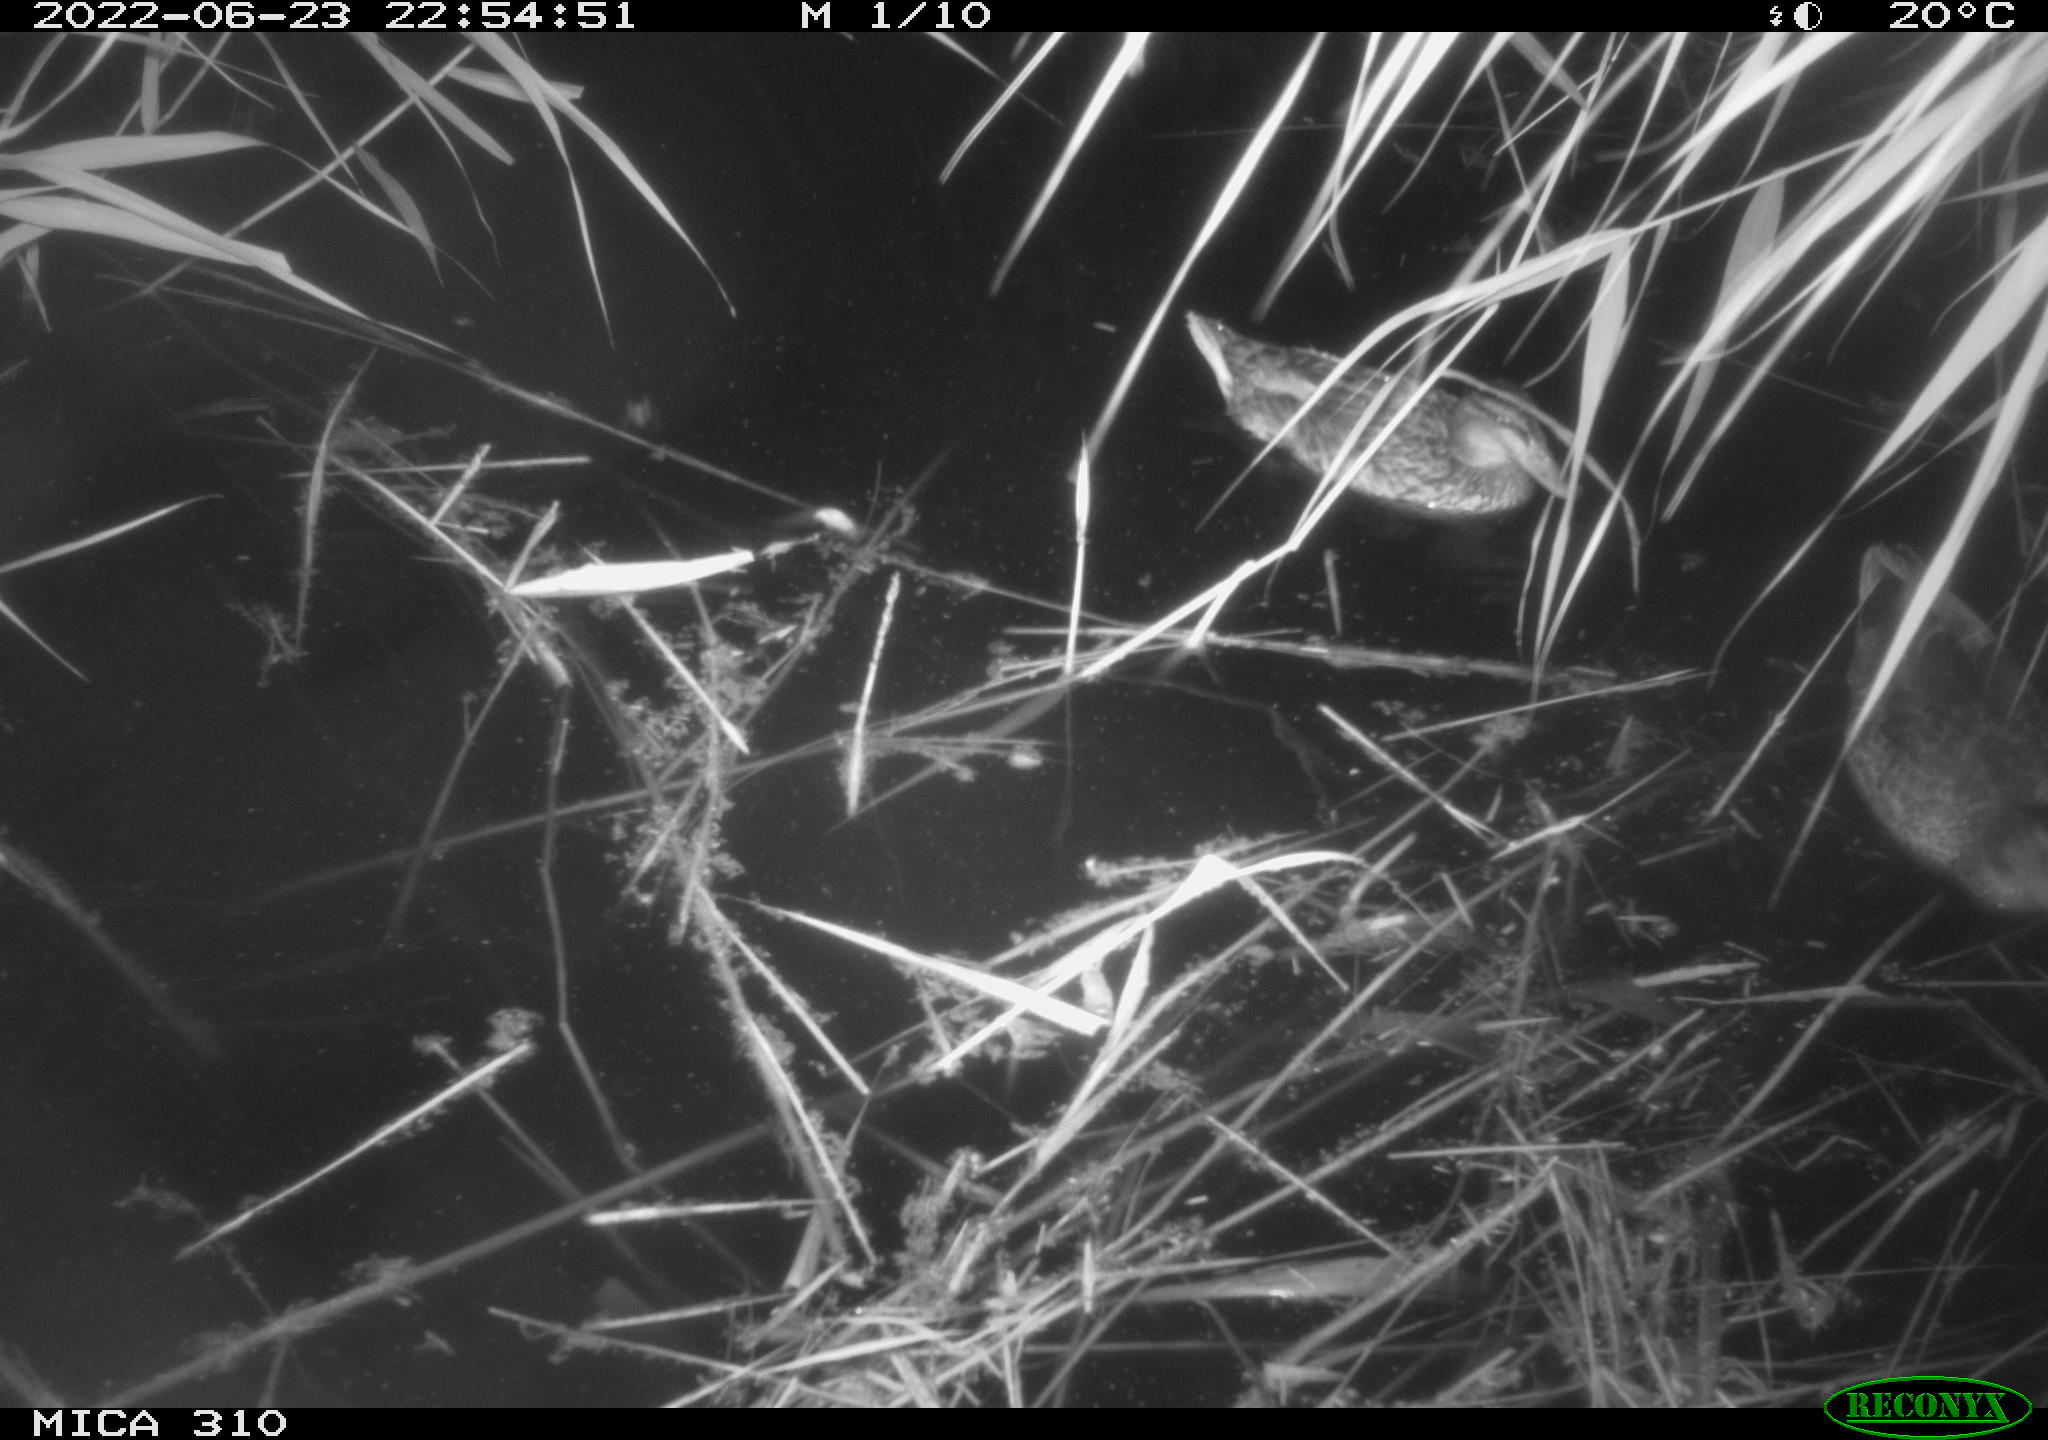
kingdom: Animalia
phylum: Chordata
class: Aves
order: Anseriformes
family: Anatidae
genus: Anas
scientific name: Anas platyrhynchos
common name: Mallard
